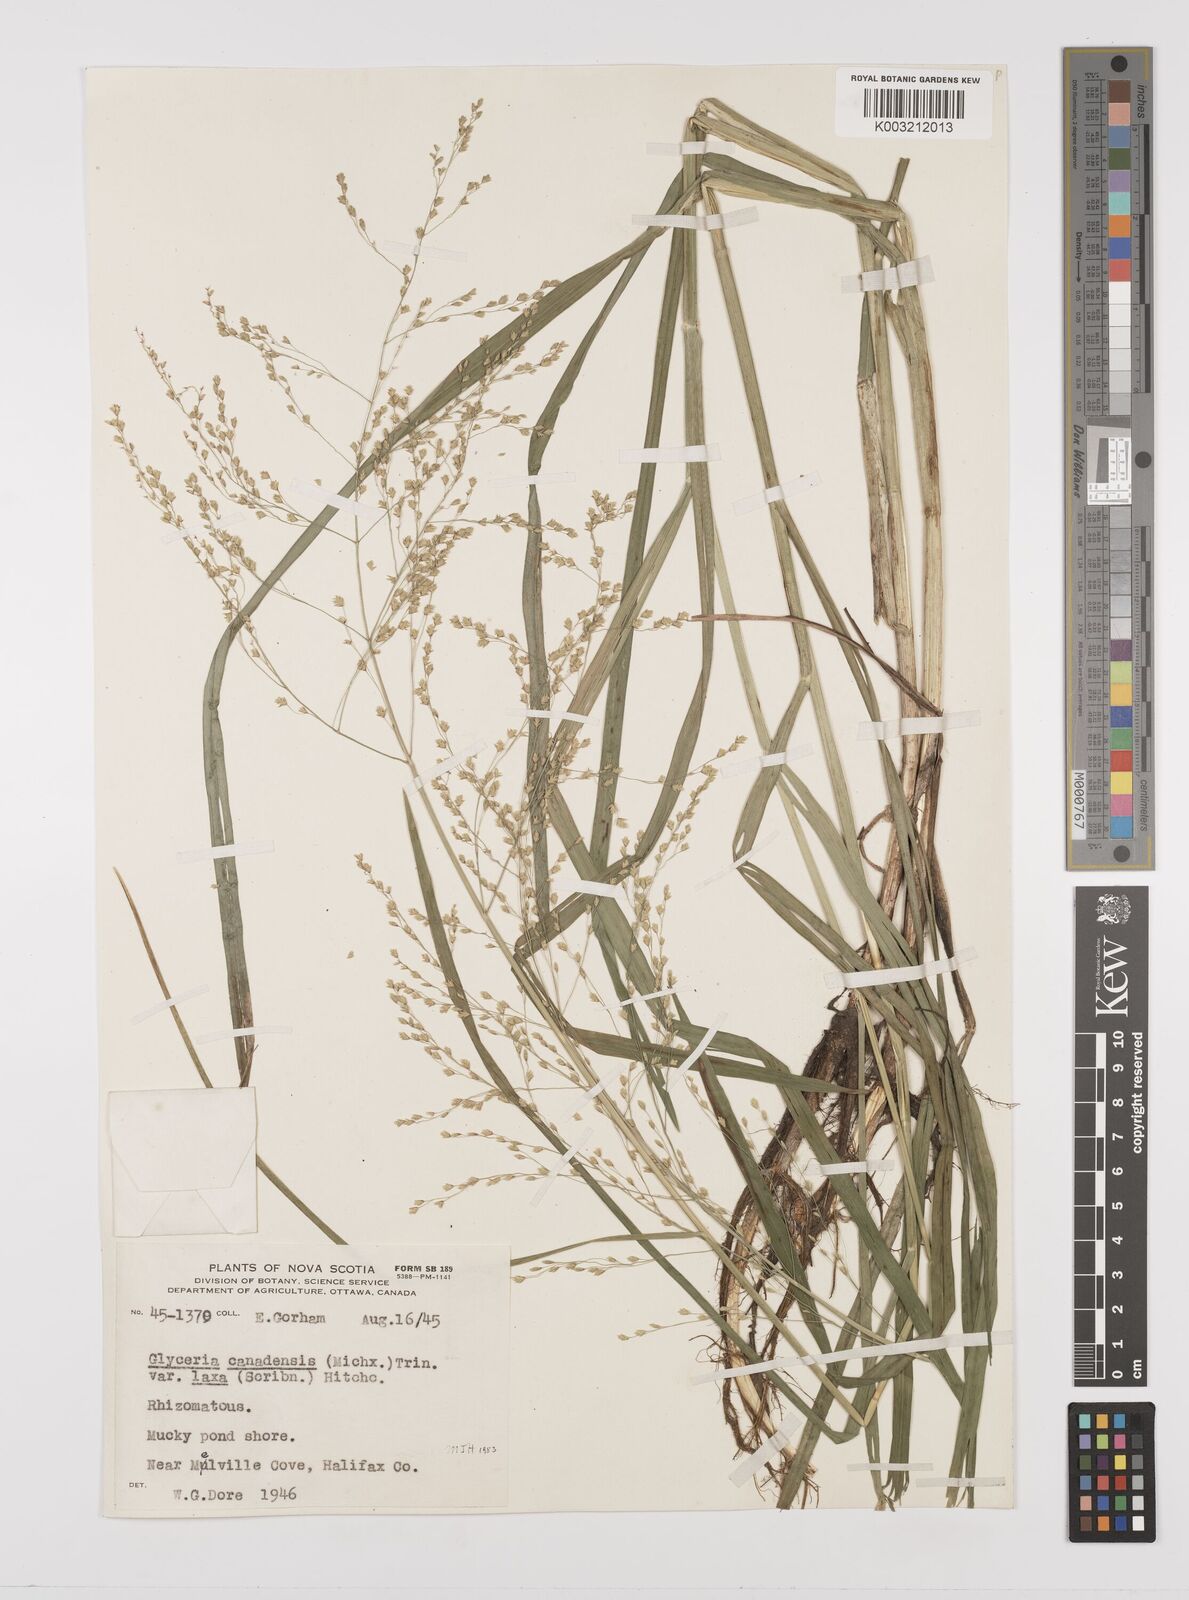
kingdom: Plantae
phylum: Tracheophyta
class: Liliopsida
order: Poales
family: Poaceae
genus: Glyceria
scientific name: Glyceria canadensis
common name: Canada mannagrass
